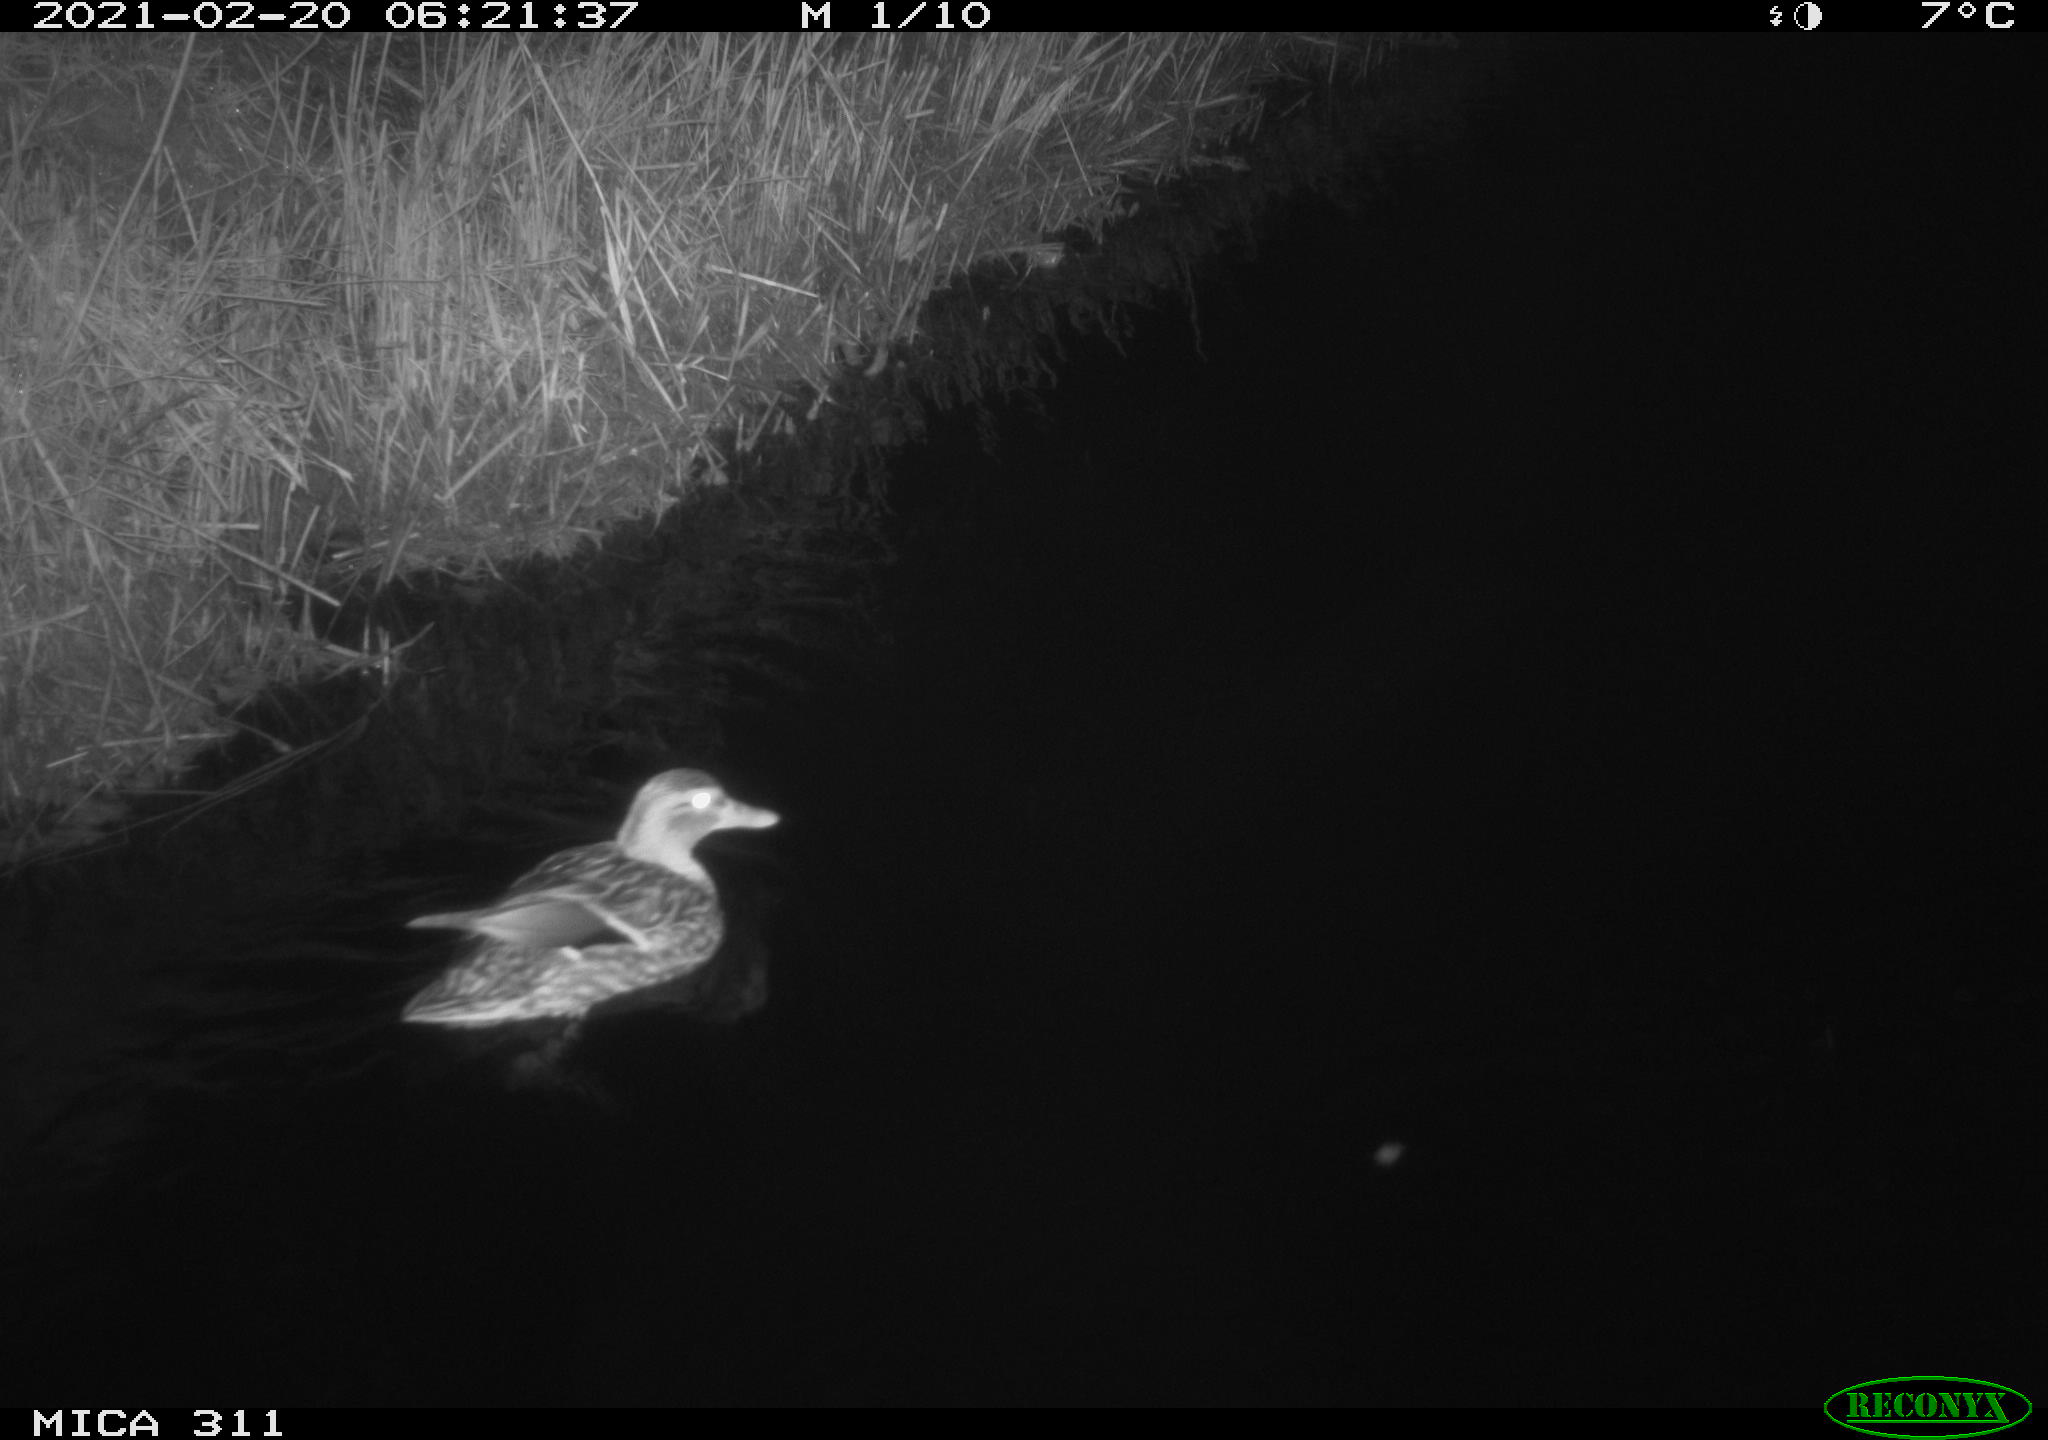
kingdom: Animalia
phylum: Chordata
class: Aves
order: Anseriformes
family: Anatidae
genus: Anas
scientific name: Anas platyrhynchos
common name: Mallard
